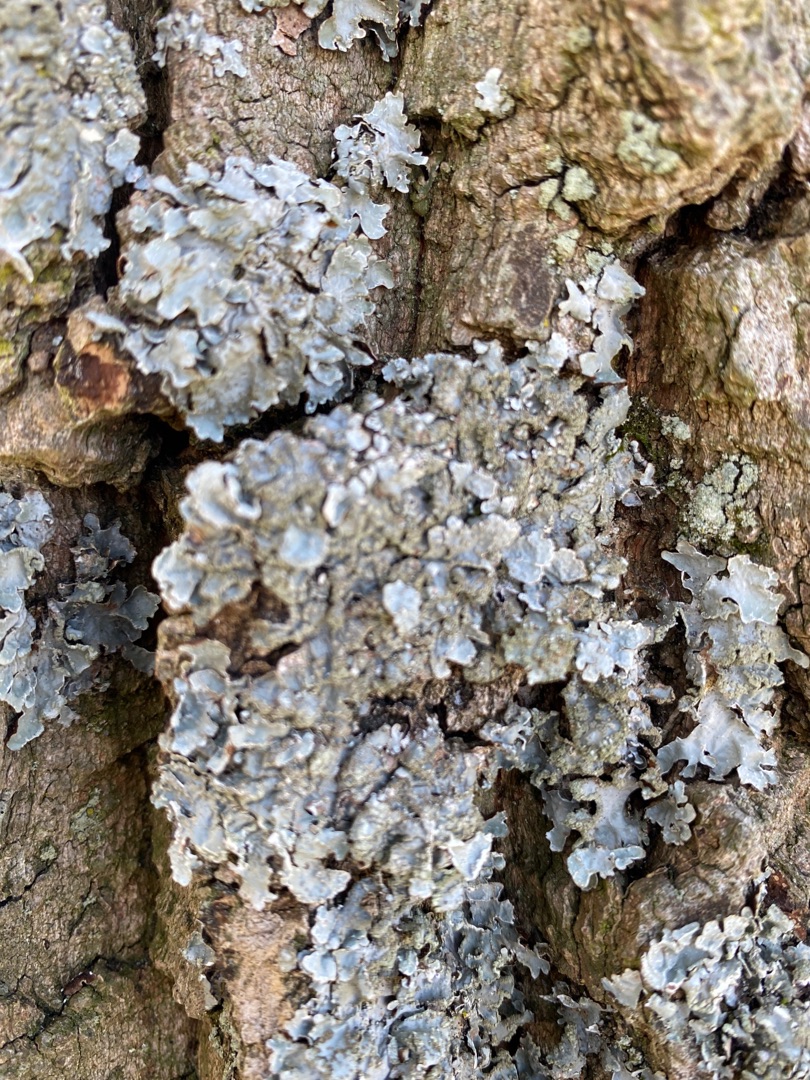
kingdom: Fungi
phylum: Ascomycota
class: Lecanoromycetes
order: Lecanorales
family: Parmeliaceae
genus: Parmelia
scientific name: Parmelia sulcata
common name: Rynket skållav
